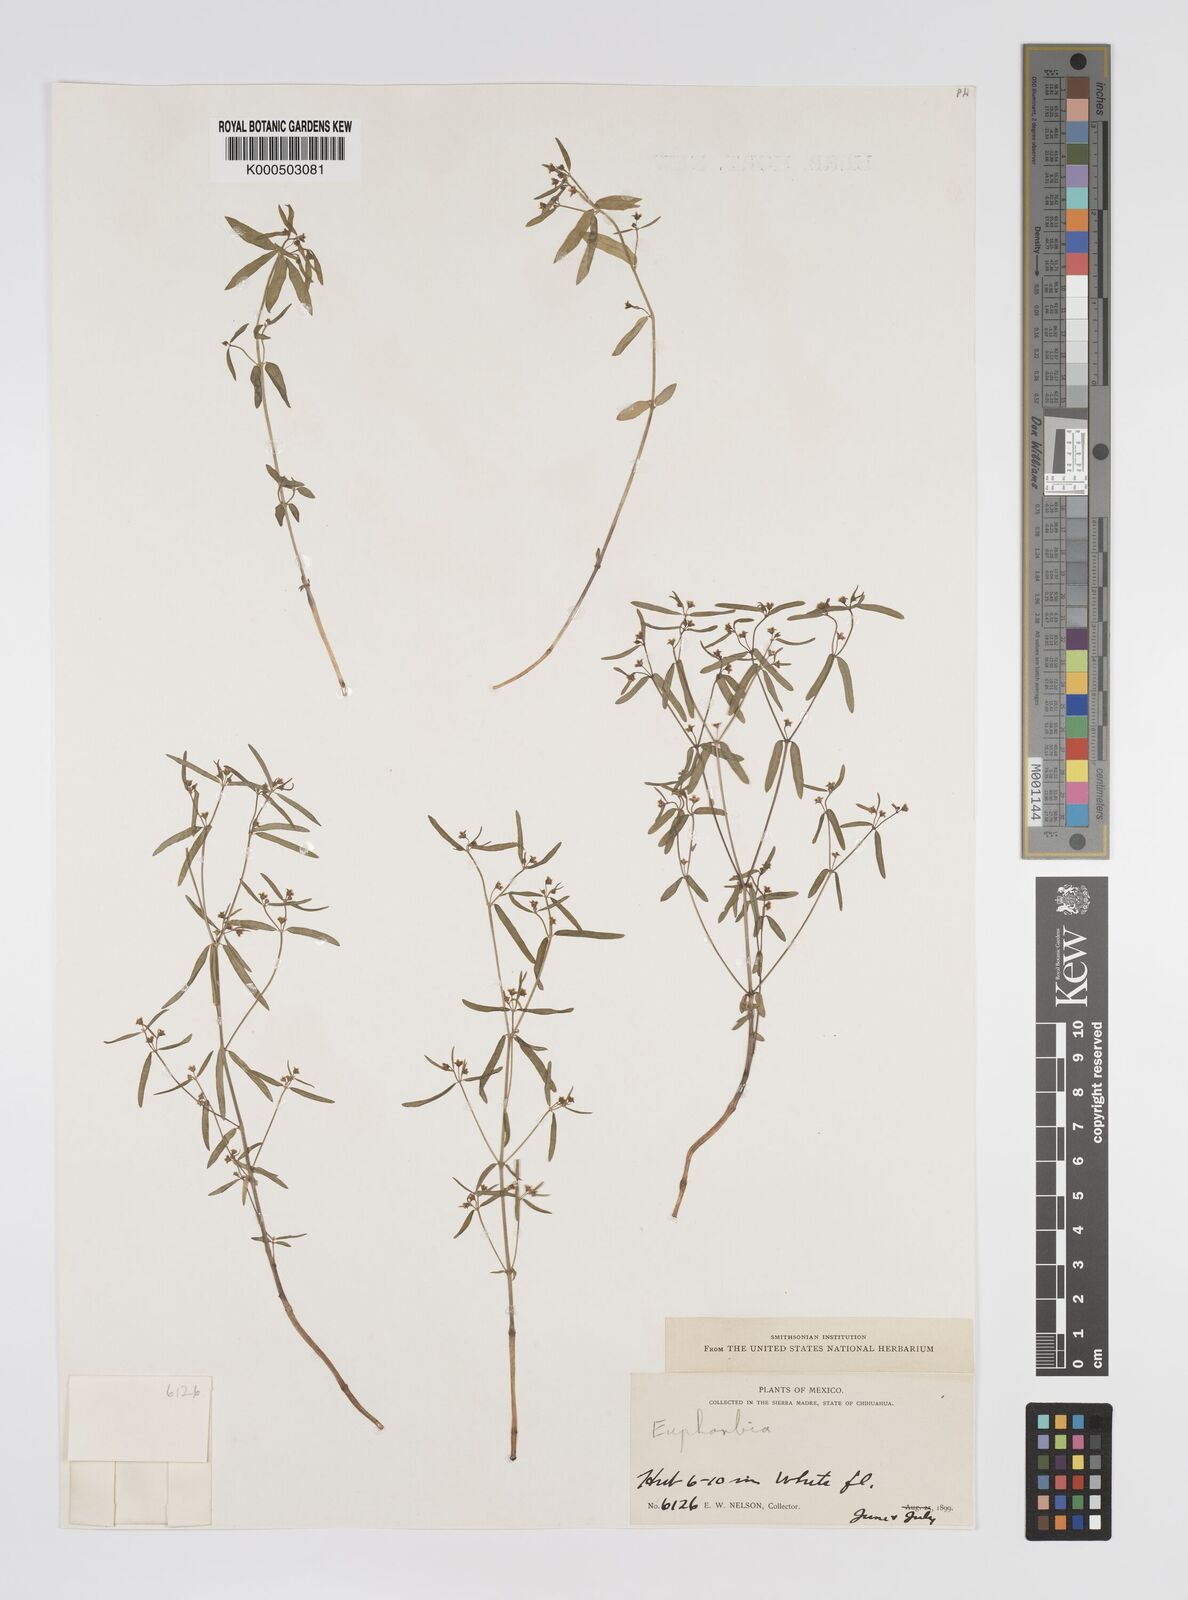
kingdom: Plantae
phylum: Tracheophyta
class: Magnoliopsida
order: Malpighiales
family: Euphorbiaceae
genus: Euphorbia
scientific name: Euphorbia
